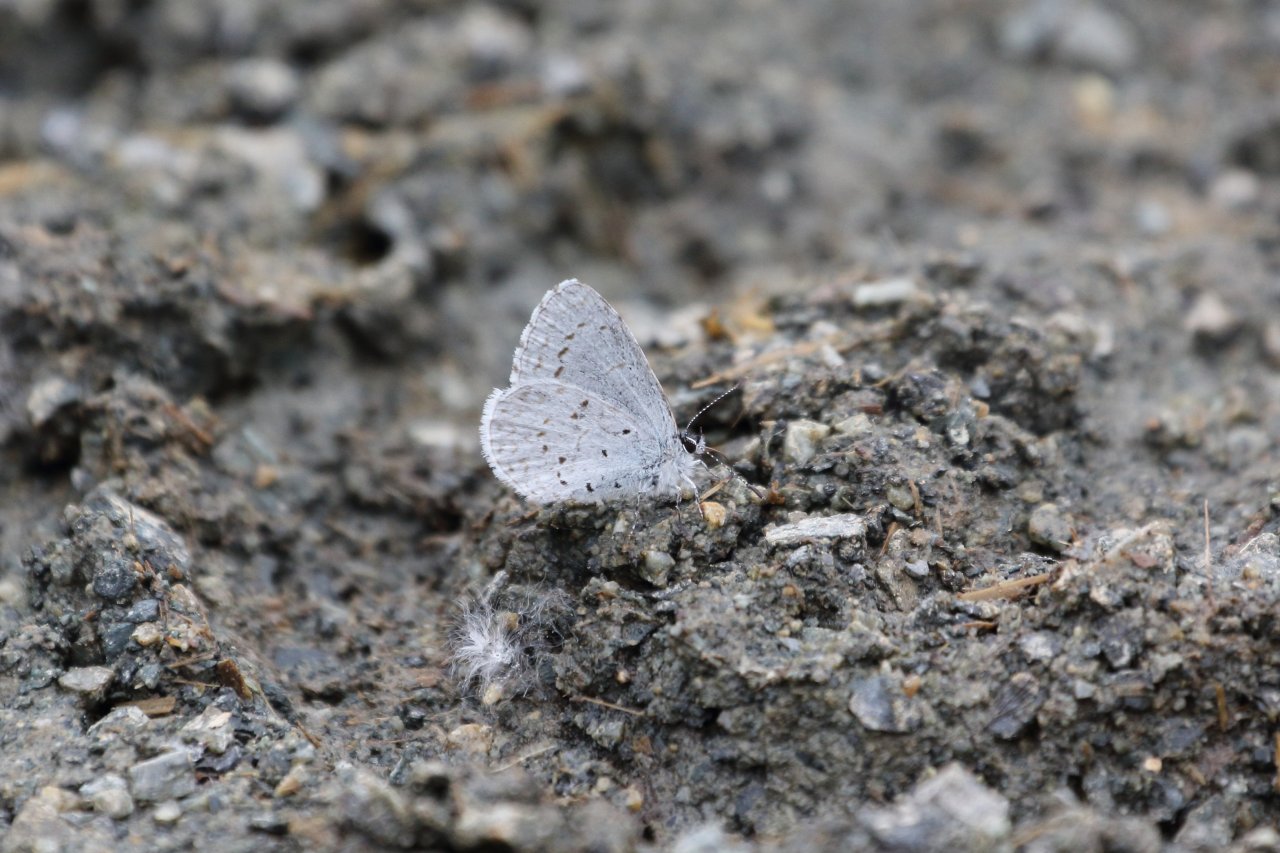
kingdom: Animalia
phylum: Arthropoda
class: Insecta
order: Lepidoptera
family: Lycaenidae
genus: Celastrina
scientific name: Celastrina ladon
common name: Echo Azure
